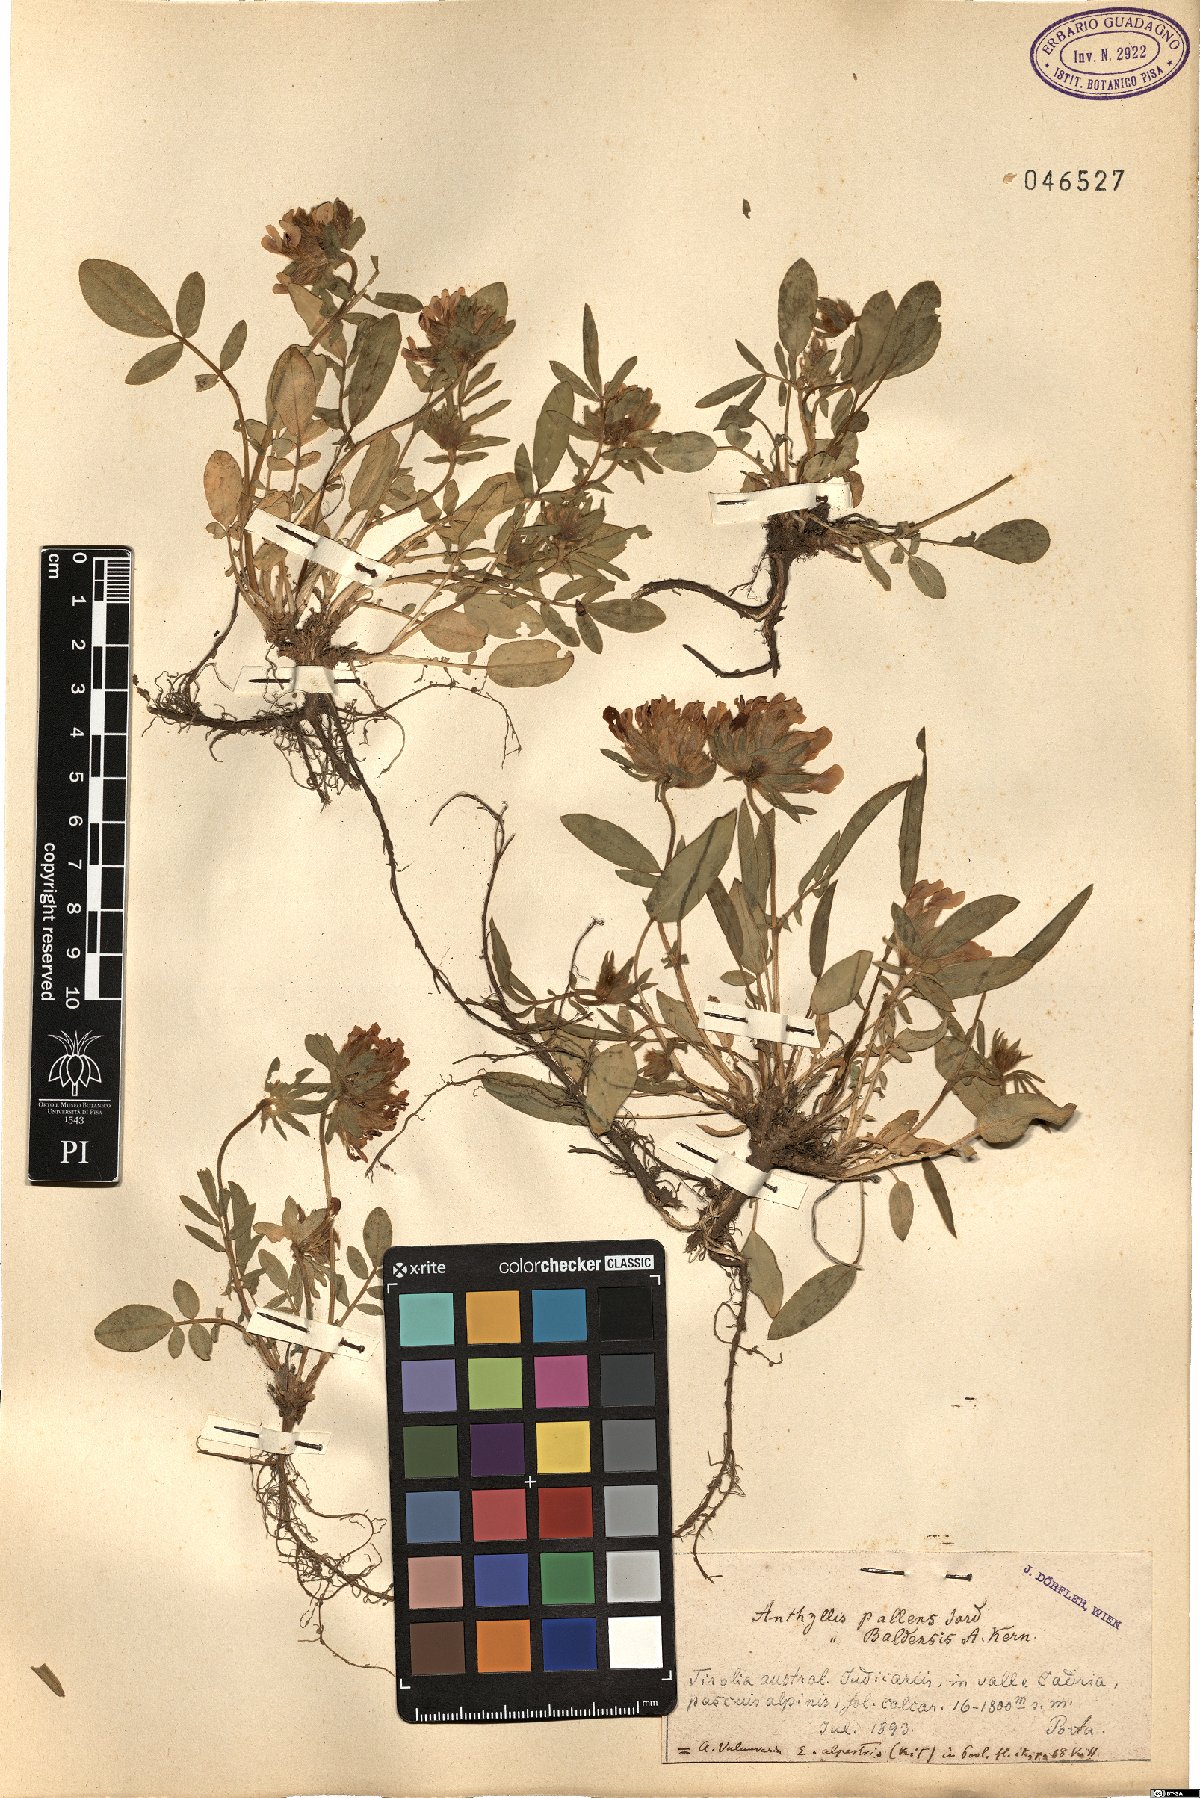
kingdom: Plantae
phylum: Tracheophyta
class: Magnoliopsida
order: Fabales
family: Fabaceae
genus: Anthyllis
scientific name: Anthyllis vulneraria
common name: Kidney vetch
